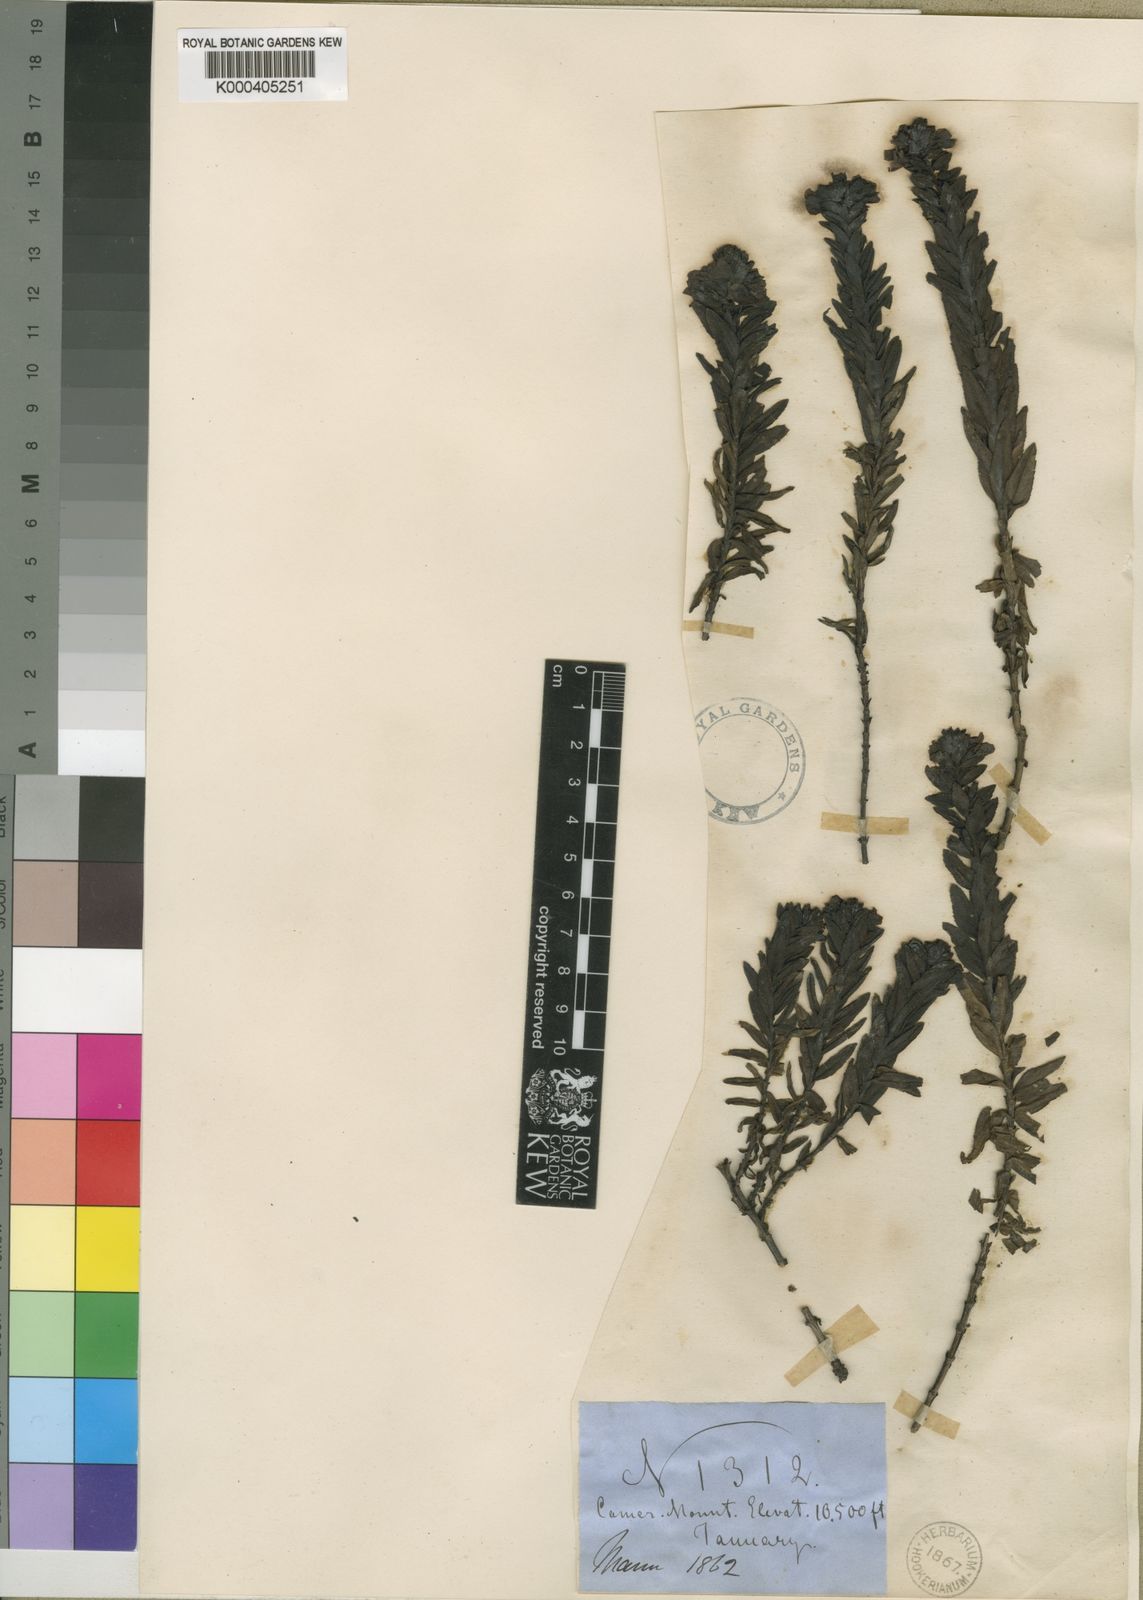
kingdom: Plantae
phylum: Tracheophyta
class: Magnoliopsida
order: Lamiales
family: Plantaginaceae
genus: Veronica
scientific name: Veronica mannii
